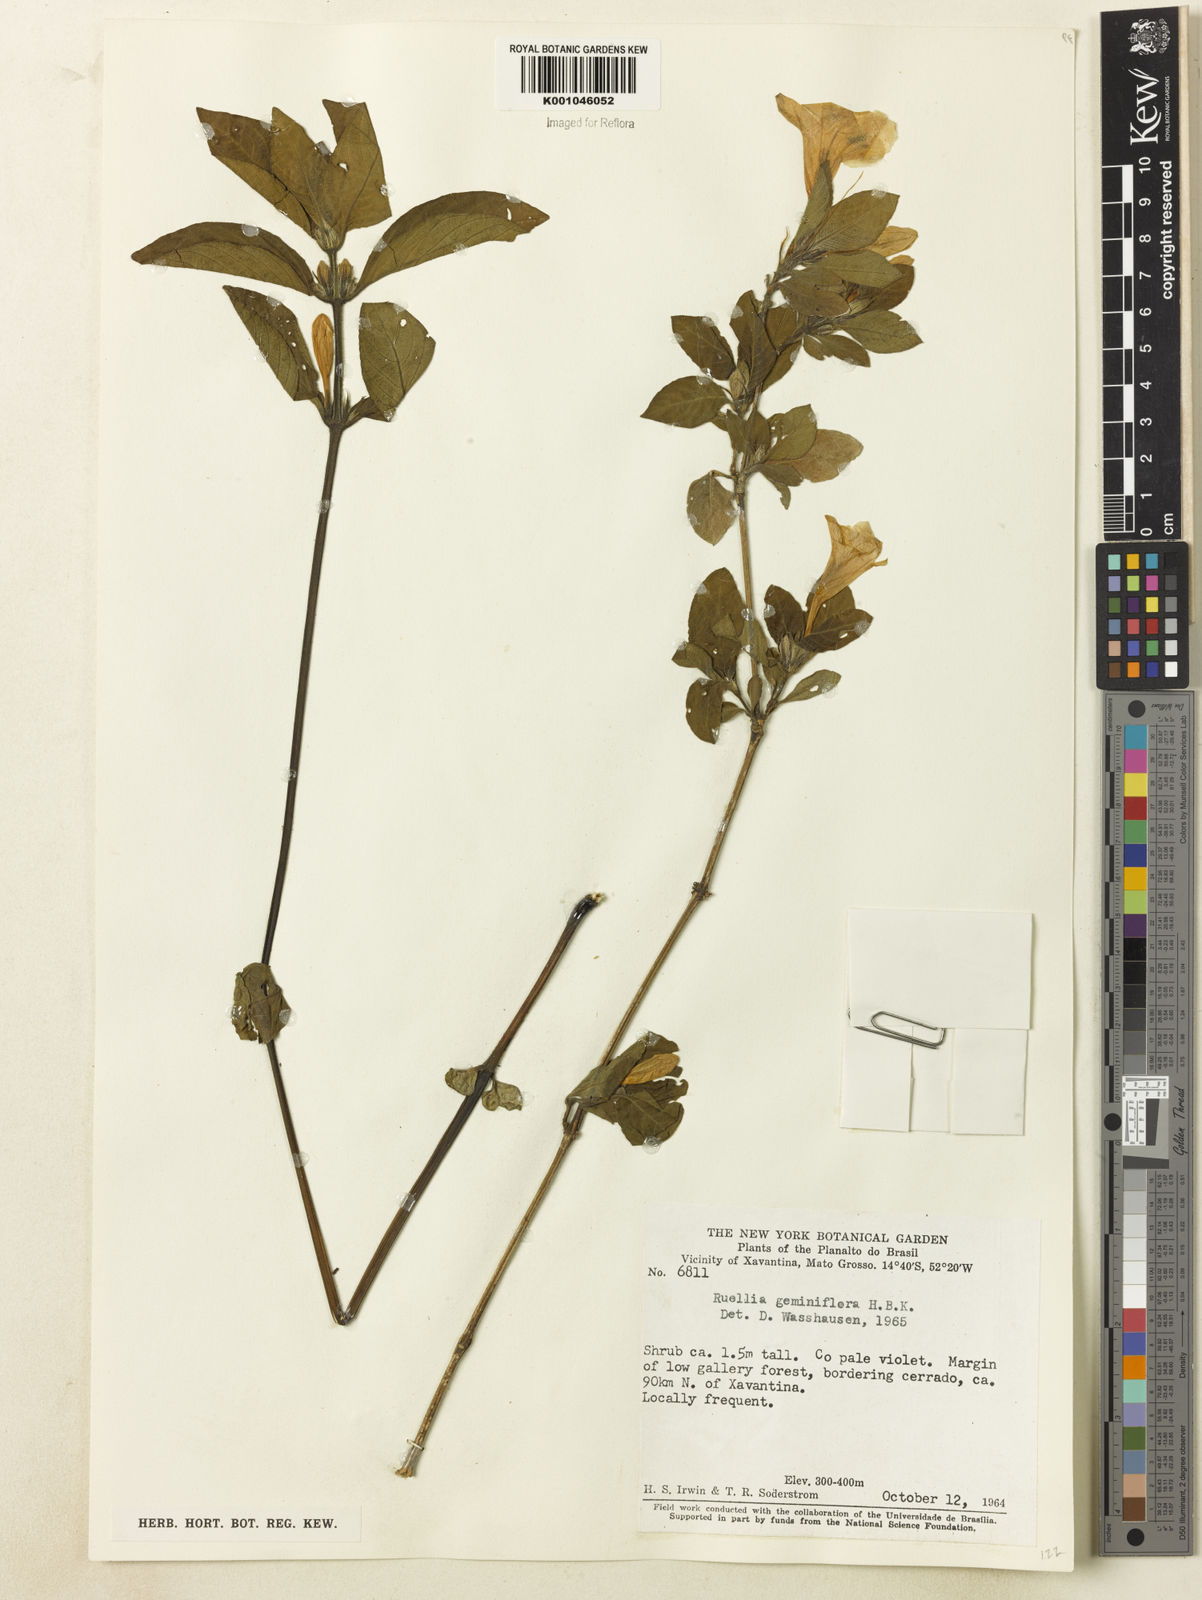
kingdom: Plantae
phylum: Tracheophyta
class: Magnoliopsida
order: Lamiales
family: Acanthaceae
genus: Ruellia
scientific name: Ruellia geminiflora
